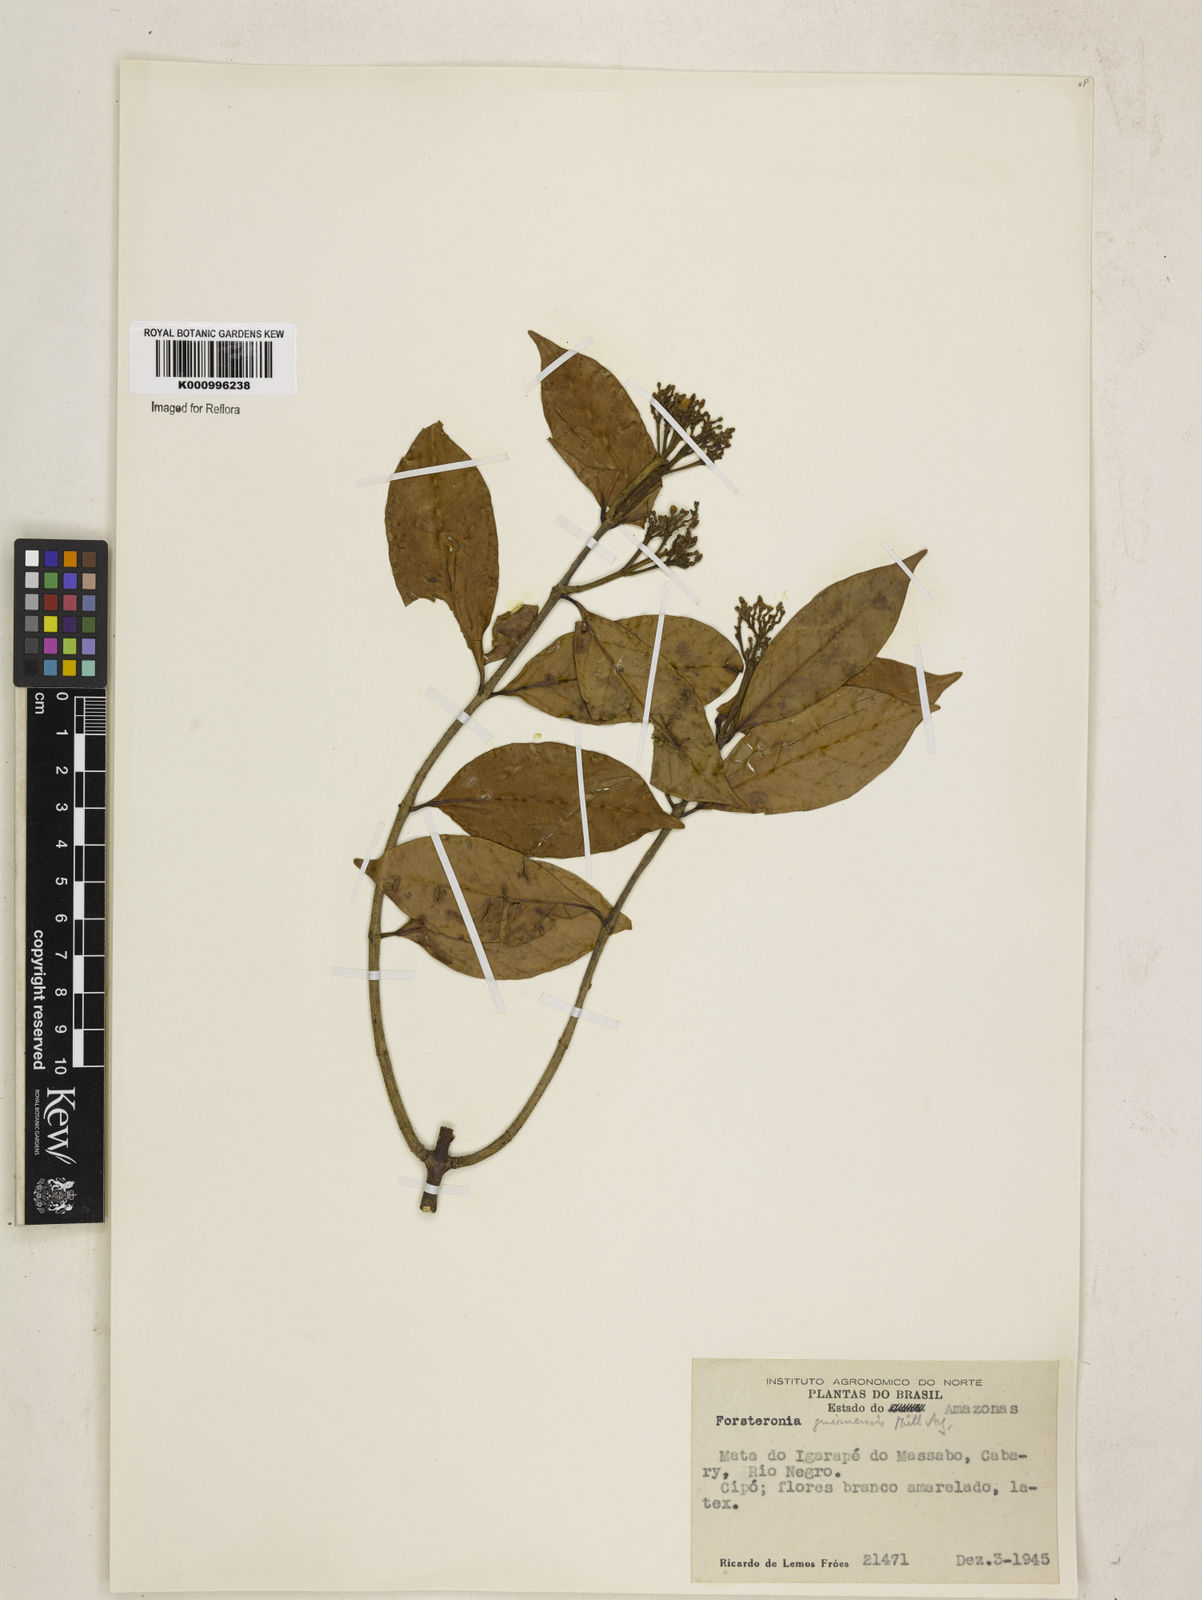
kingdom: Plantae
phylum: Tracheophyta
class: Magnoliopsida
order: Gentianales
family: Apocynaceae
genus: Forsteronia
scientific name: Forsteronia guyanensis
